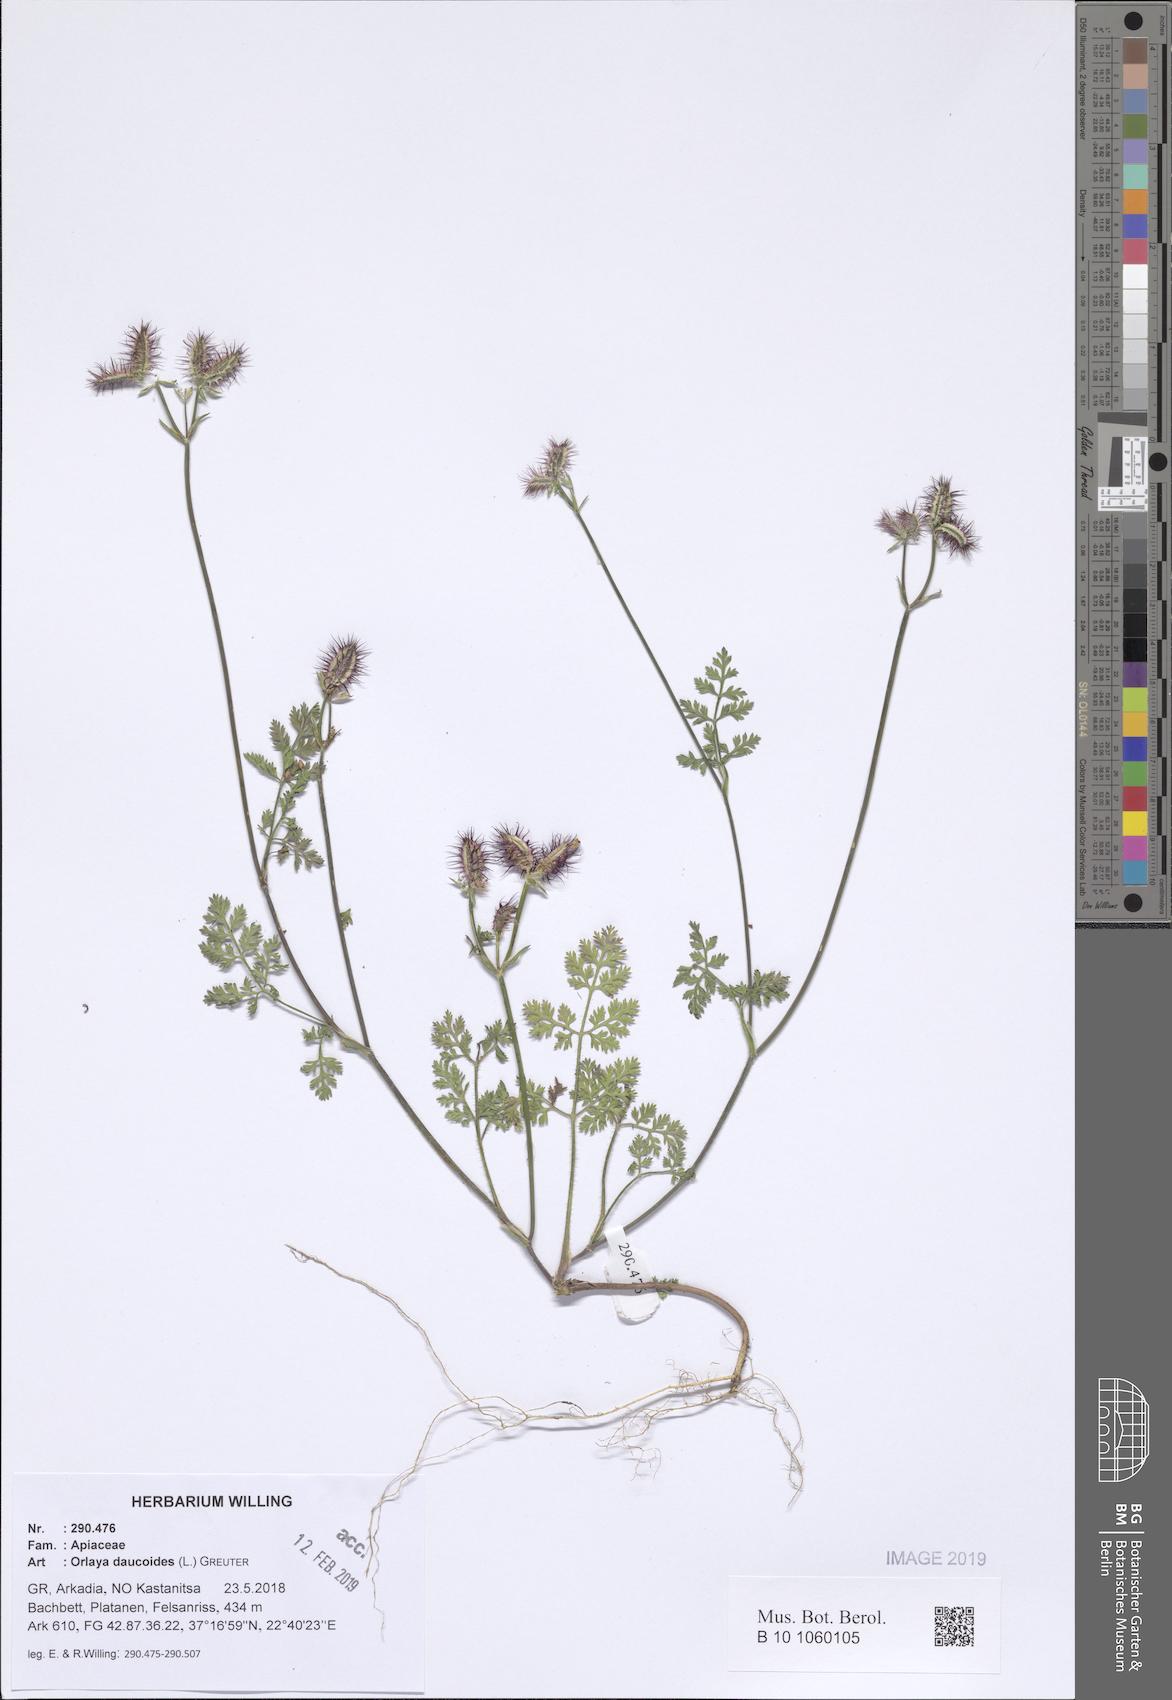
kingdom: Plantae
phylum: Tracheophyta
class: Magnoliopsida
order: Apiales
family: Apiaceae
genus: Orlaya
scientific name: Orlaya daucoides
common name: Flat-fruit orlaya
